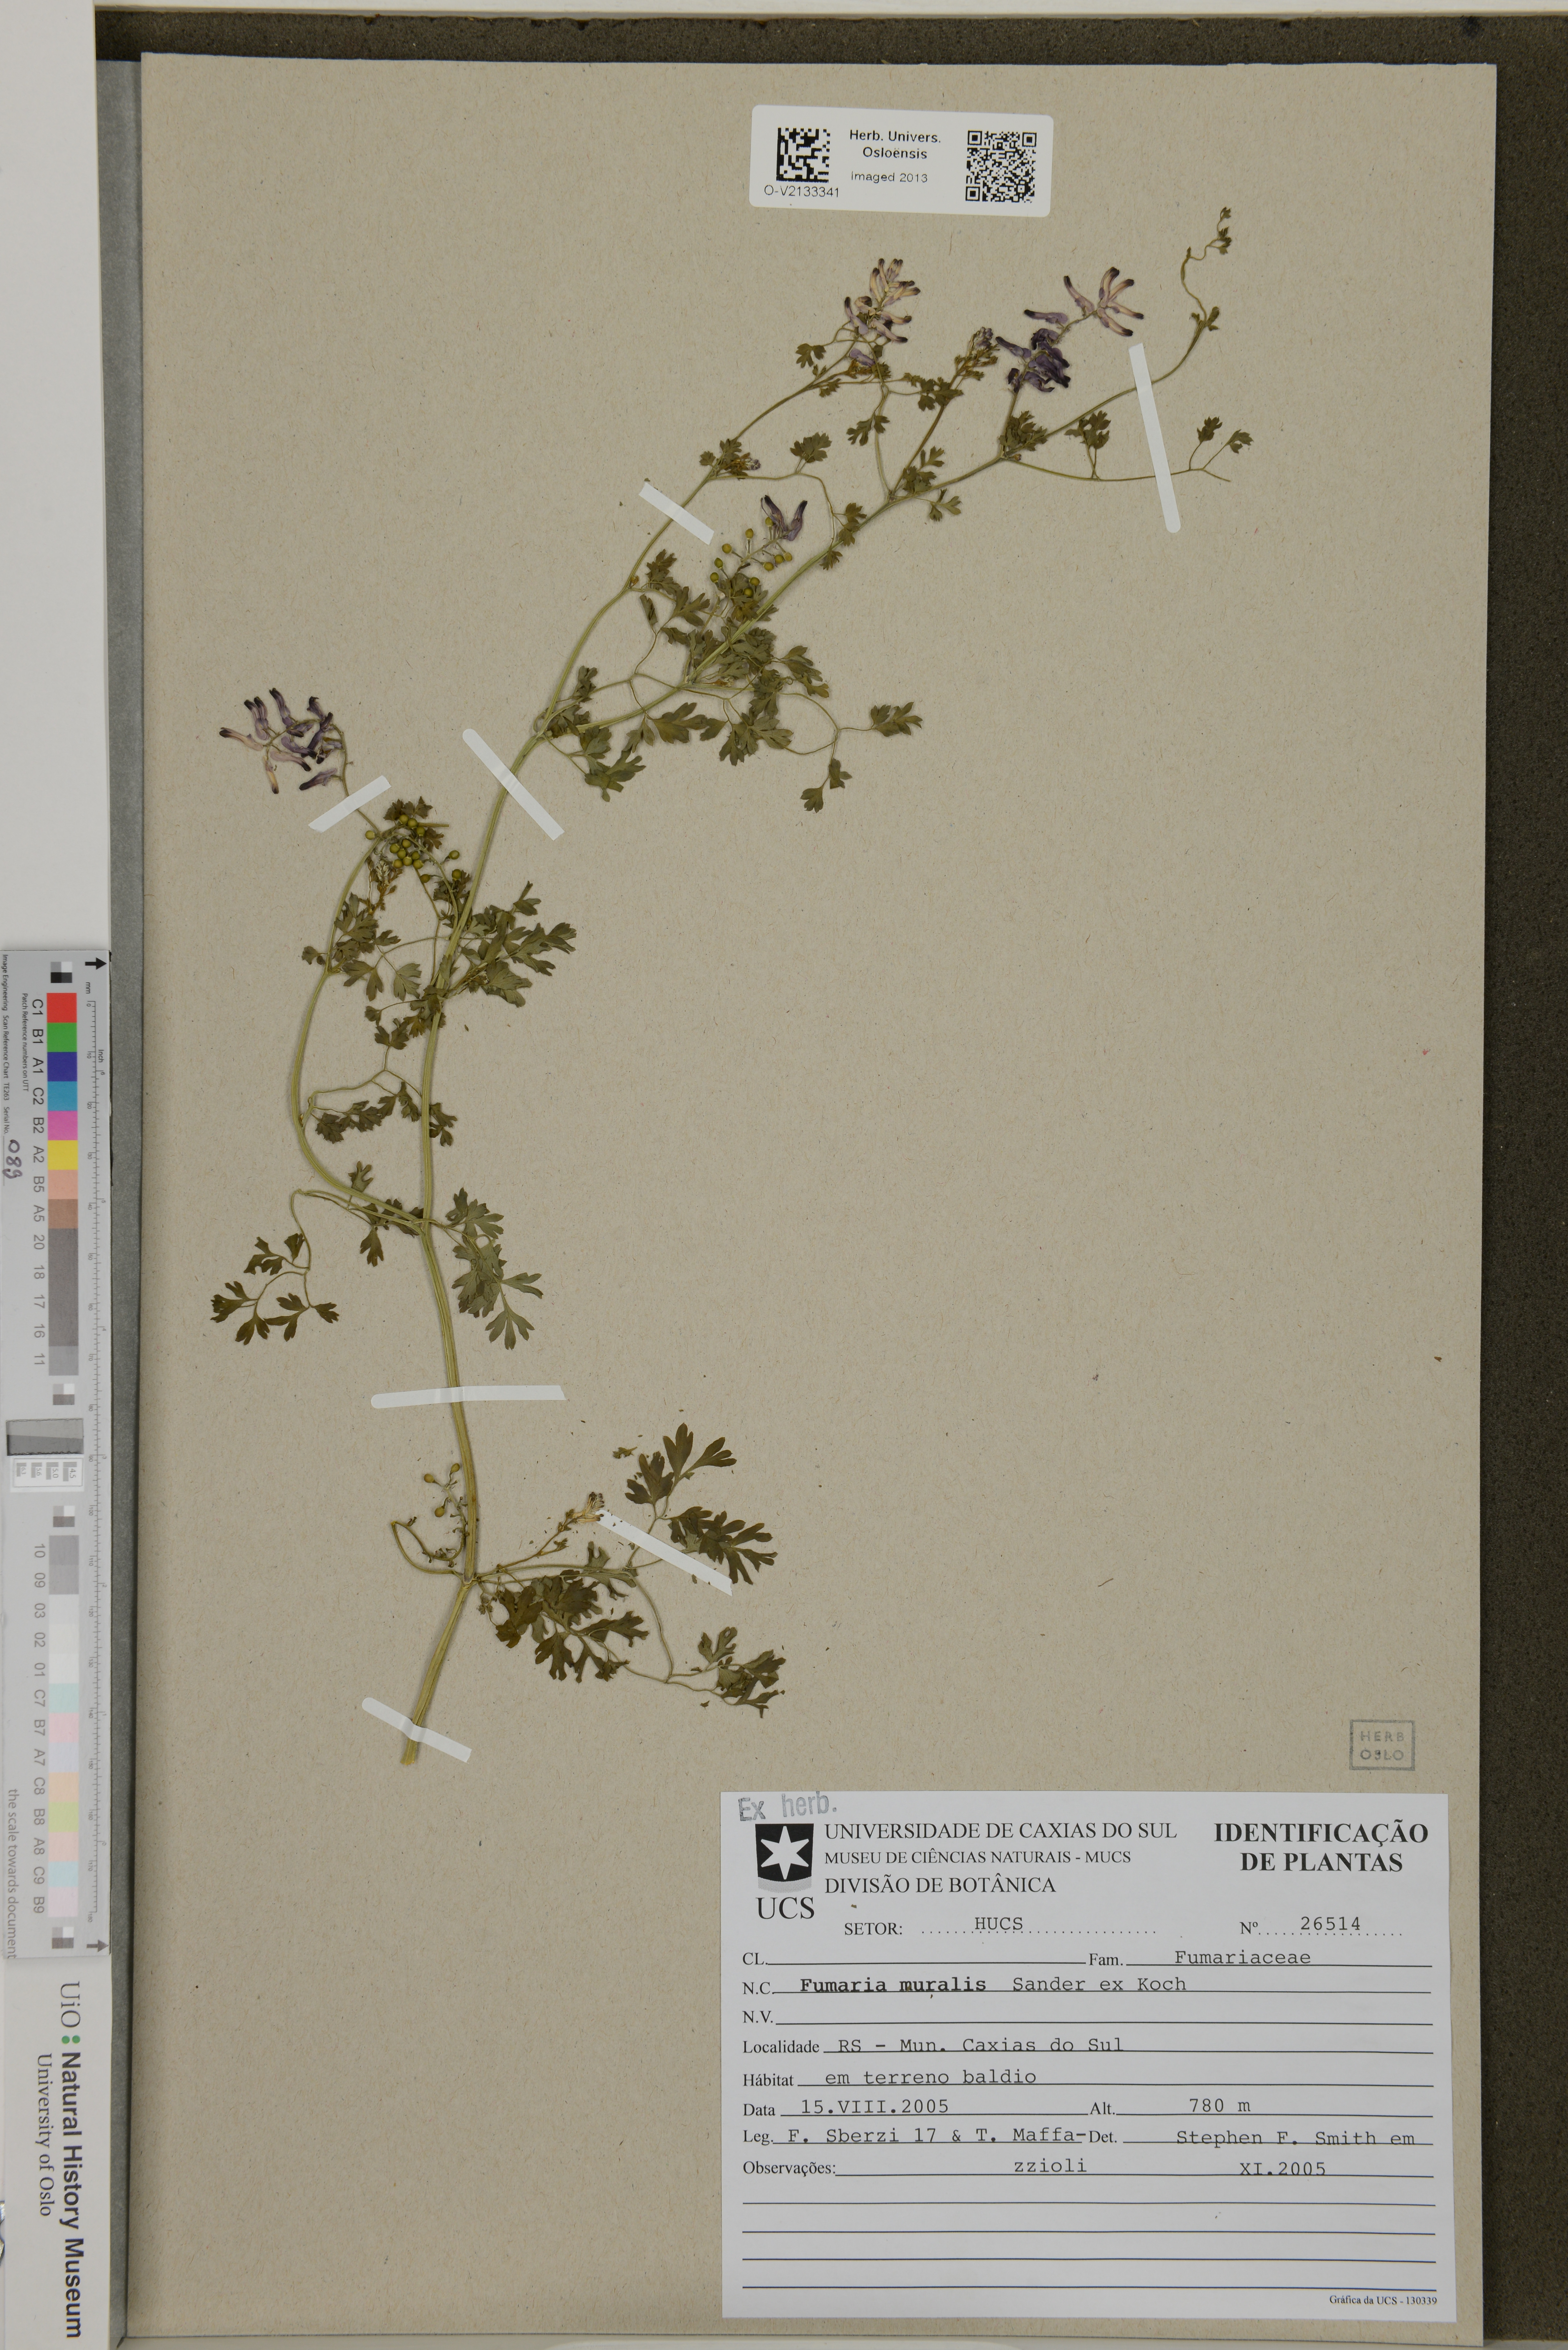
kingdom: Plantae
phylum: Tracheophyta
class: Magnoliopsida
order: Ranunculales
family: Papaveraceae
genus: Fumaria
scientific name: Fumaria muralis
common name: Common ramping-fumitory
